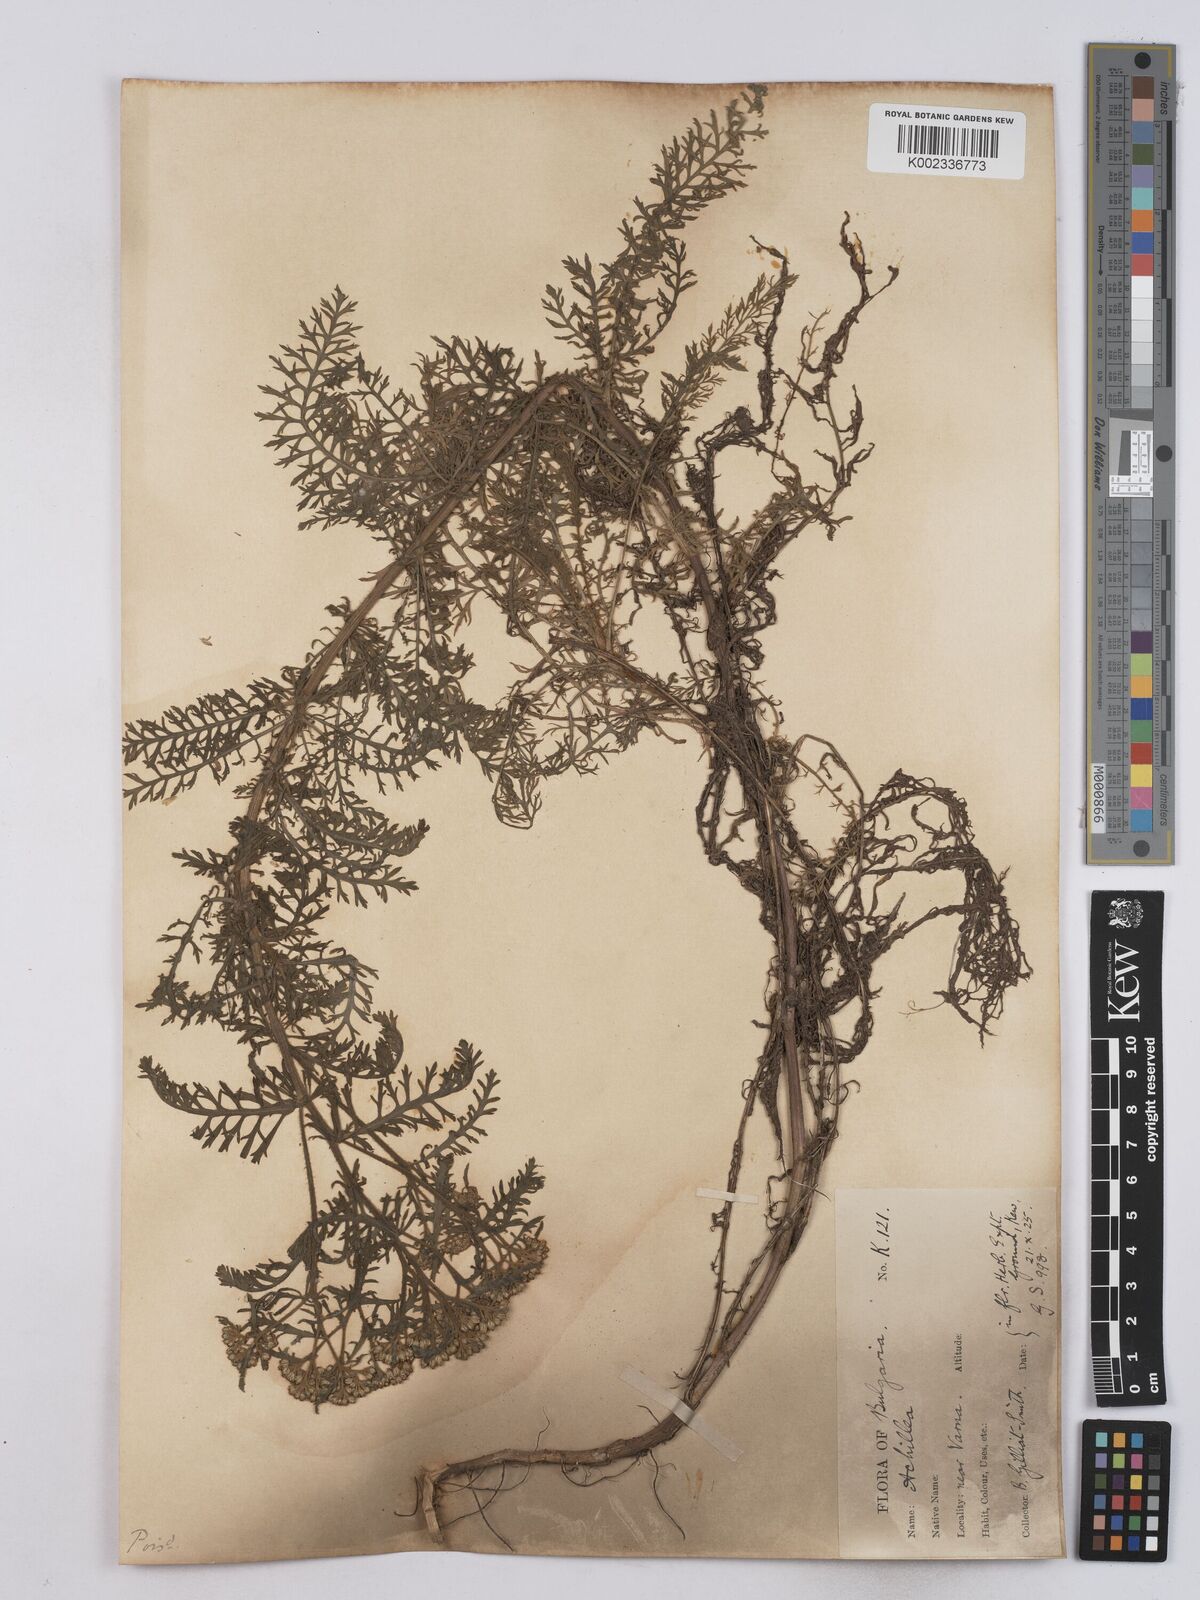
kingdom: Plantae
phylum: Tracheophyta
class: Magnoliopsida
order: Asterales
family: Asteraceae
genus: Achillea
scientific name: Achillea crithmifolia
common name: Yarrow
